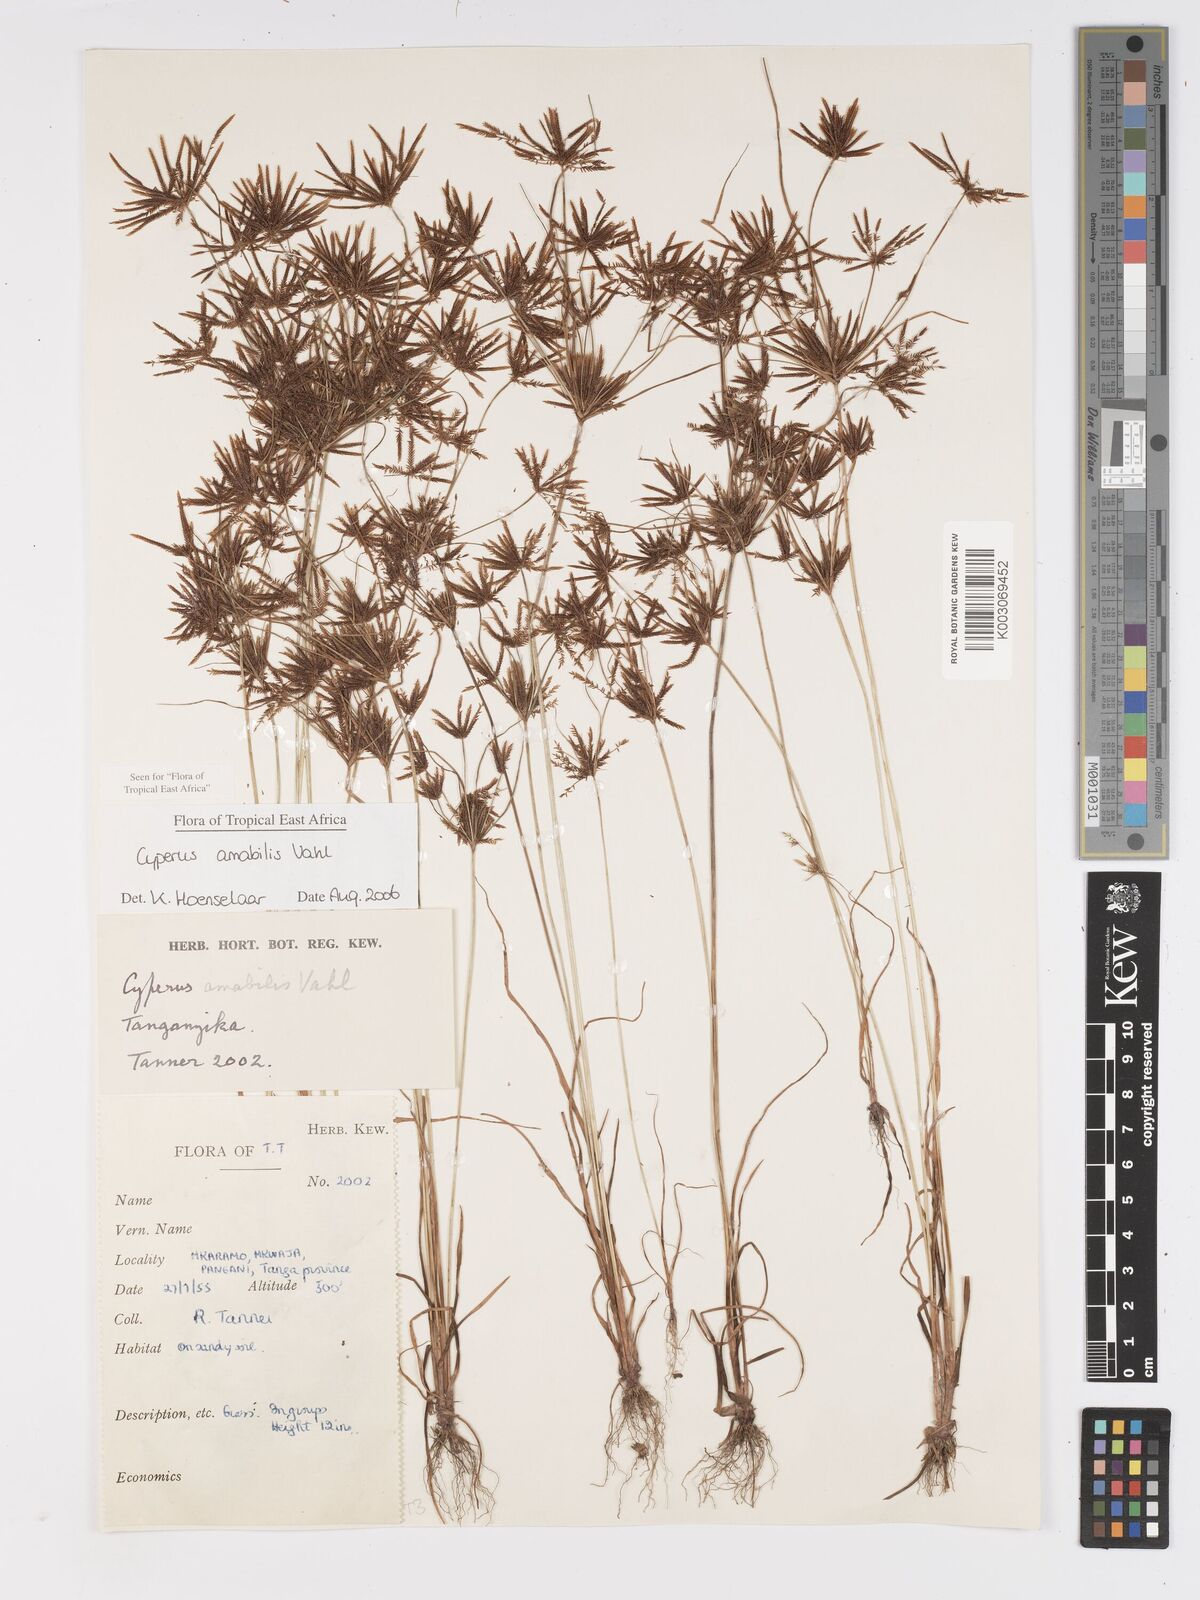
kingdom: Plantae
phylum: Tracheophyta
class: Liliopsida
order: Poales
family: Cyperaceae
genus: Cyperus
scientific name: Cyperus amabilis
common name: Foothill flat sedge
